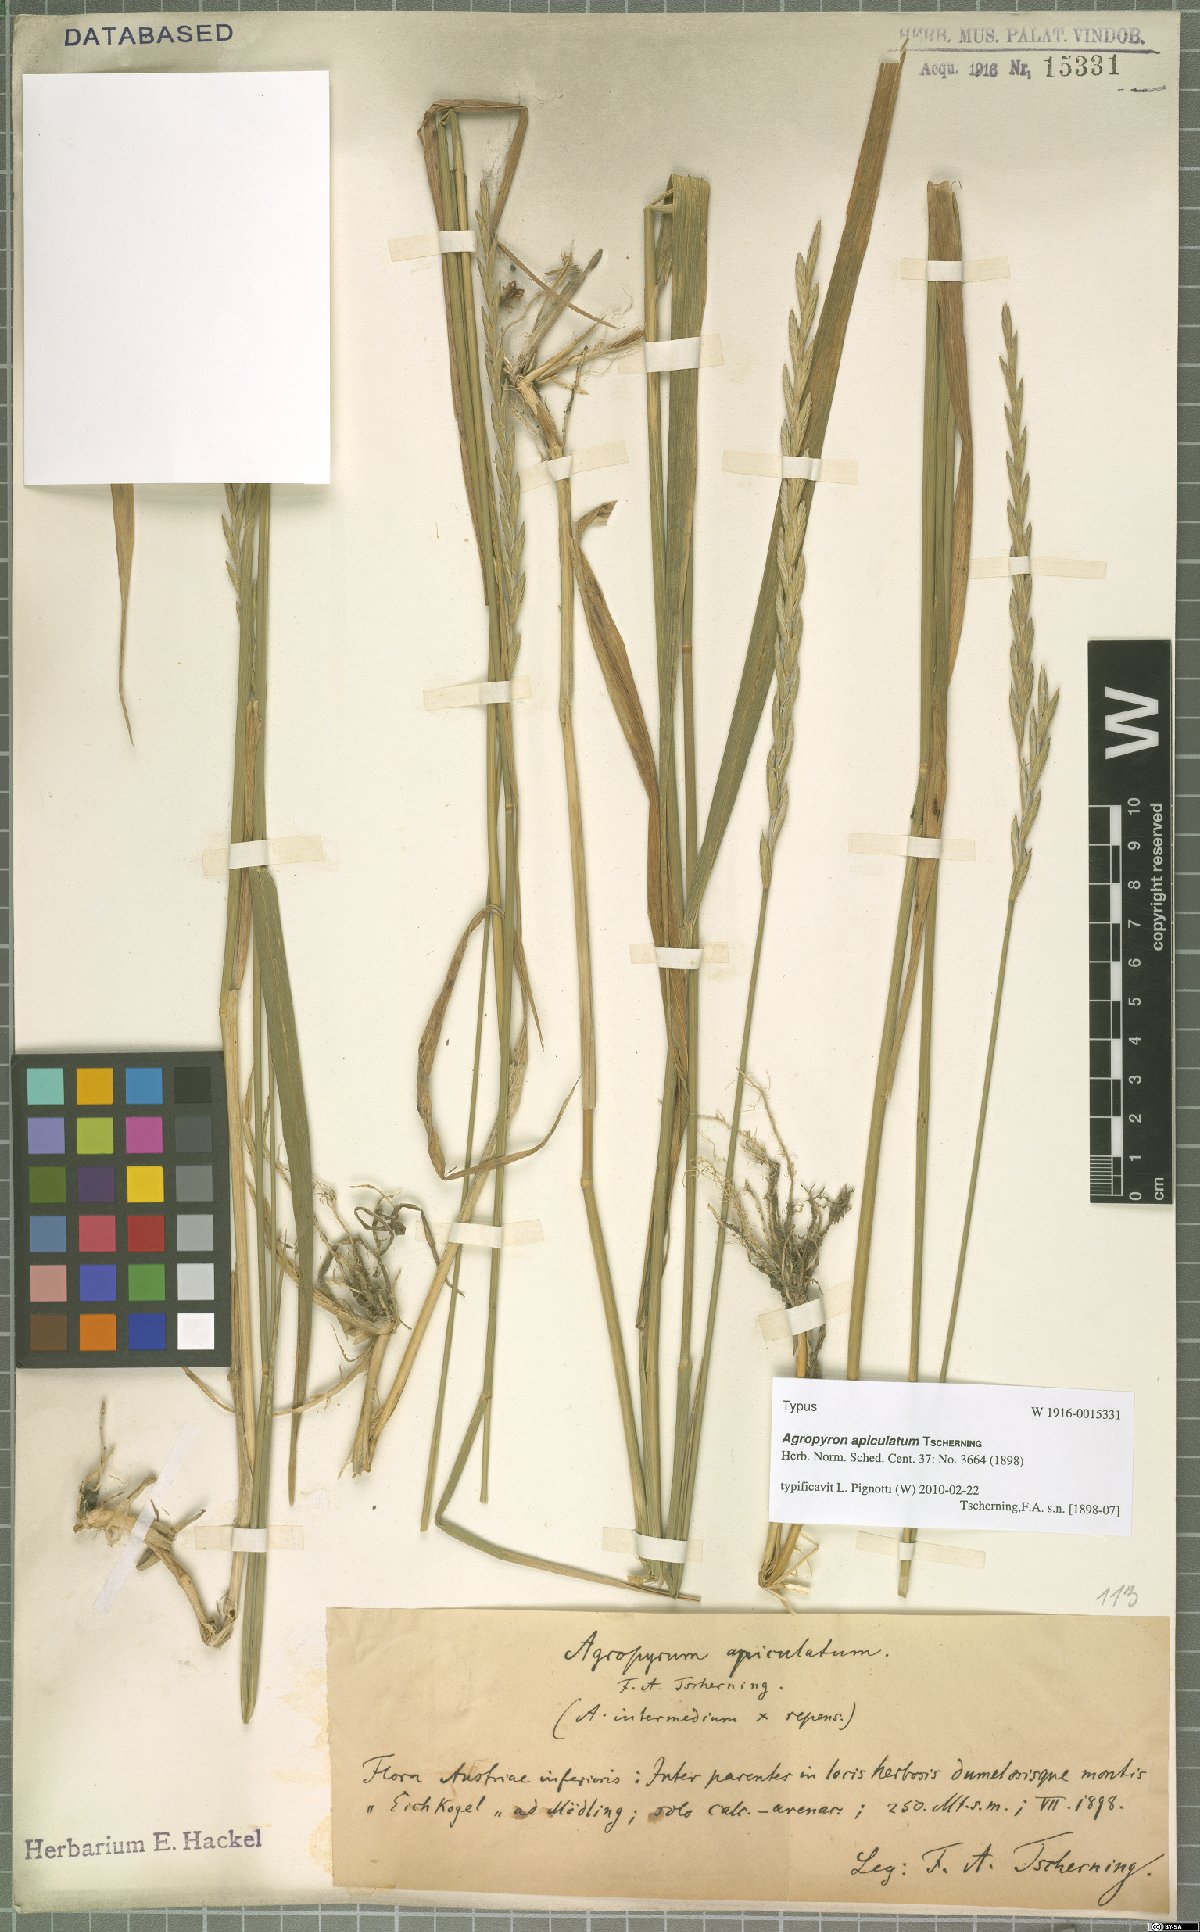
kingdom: Plantae
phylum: Tracheophyta
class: Liliopsida
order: Poales
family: Poaceae
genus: Elymus
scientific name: Elymus apiculatus
